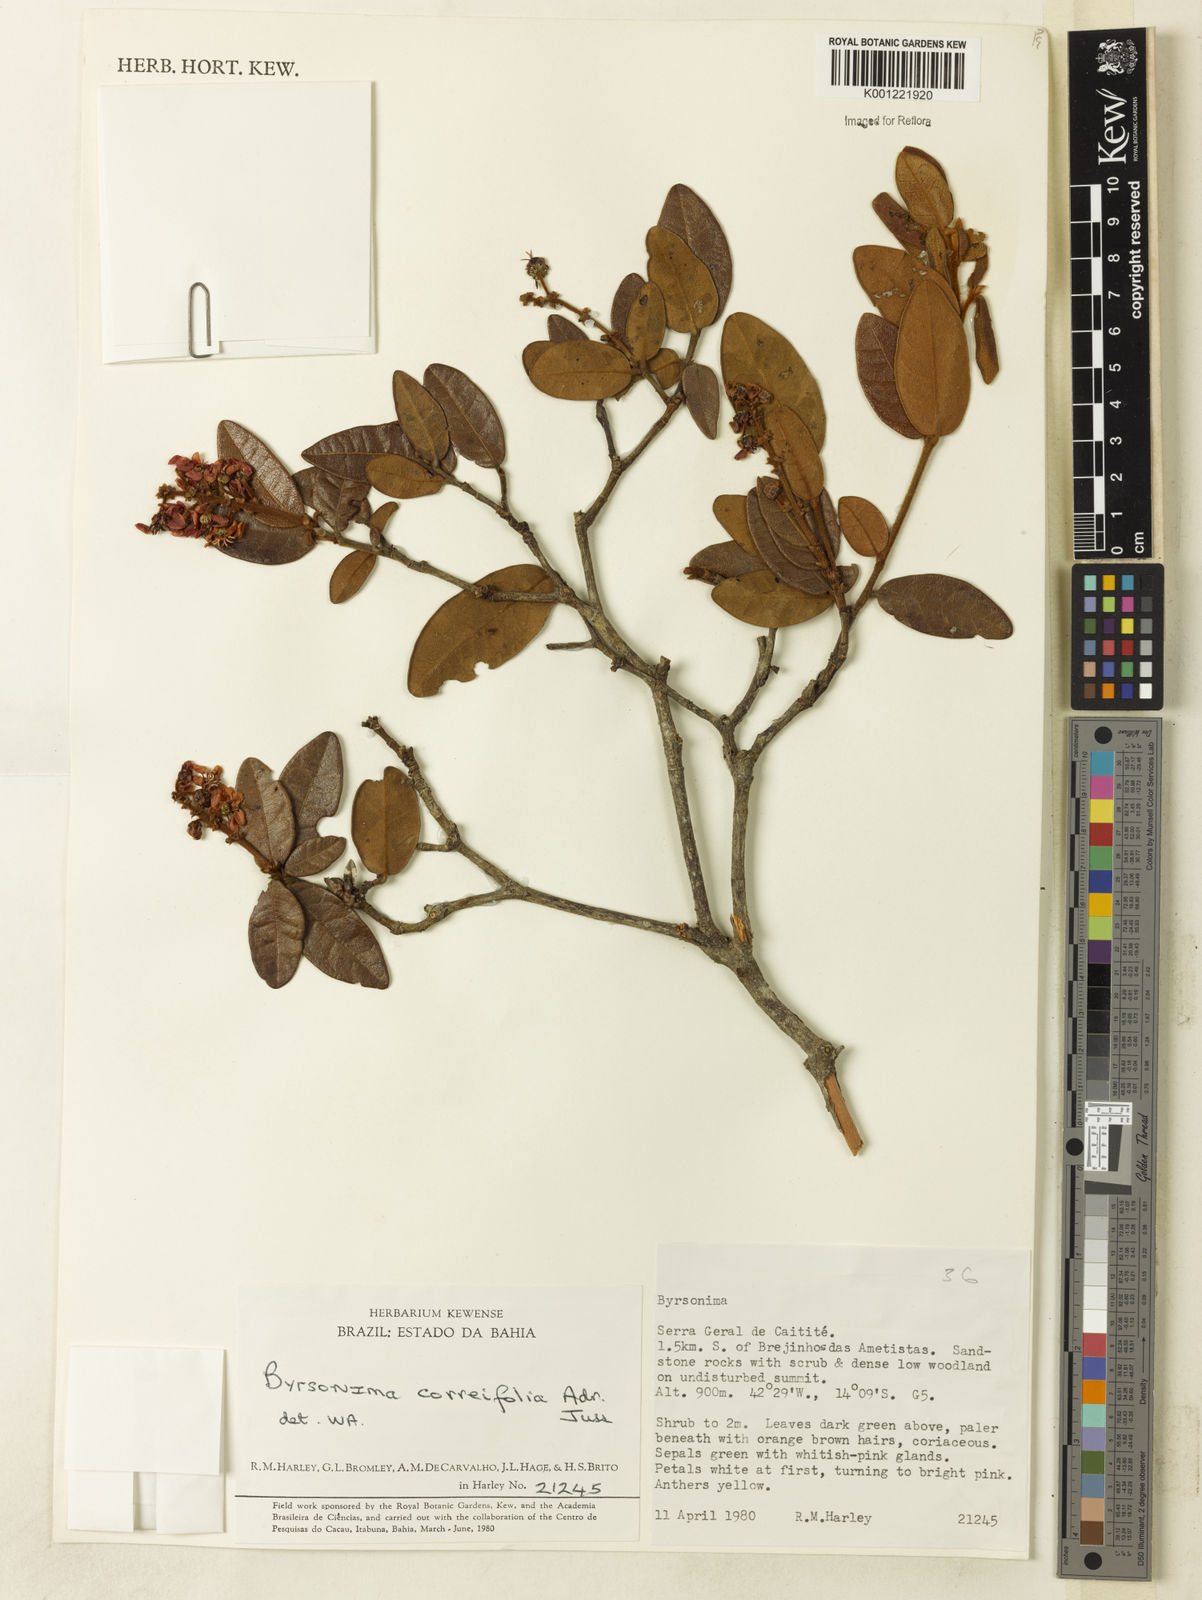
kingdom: Plantae
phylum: Tracheophyta
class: Magnoliopsida
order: Malpighiales
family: Malpighiaceae
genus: Byrsonima
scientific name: Byrsonima correifolia
